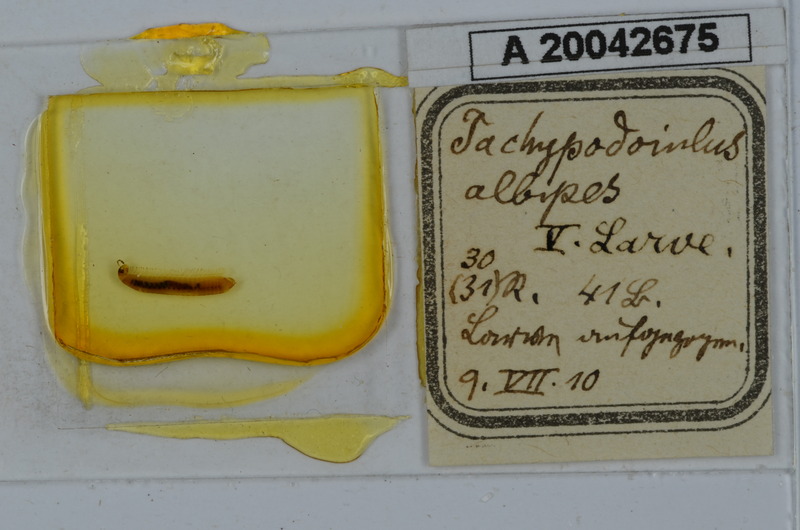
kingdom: Animalia
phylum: Arthropoda
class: Diplopoda
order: Julida
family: Julidae
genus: Tachypodoiulus
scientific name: Tachypodoiulus niger
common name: White-legged snake millipede
